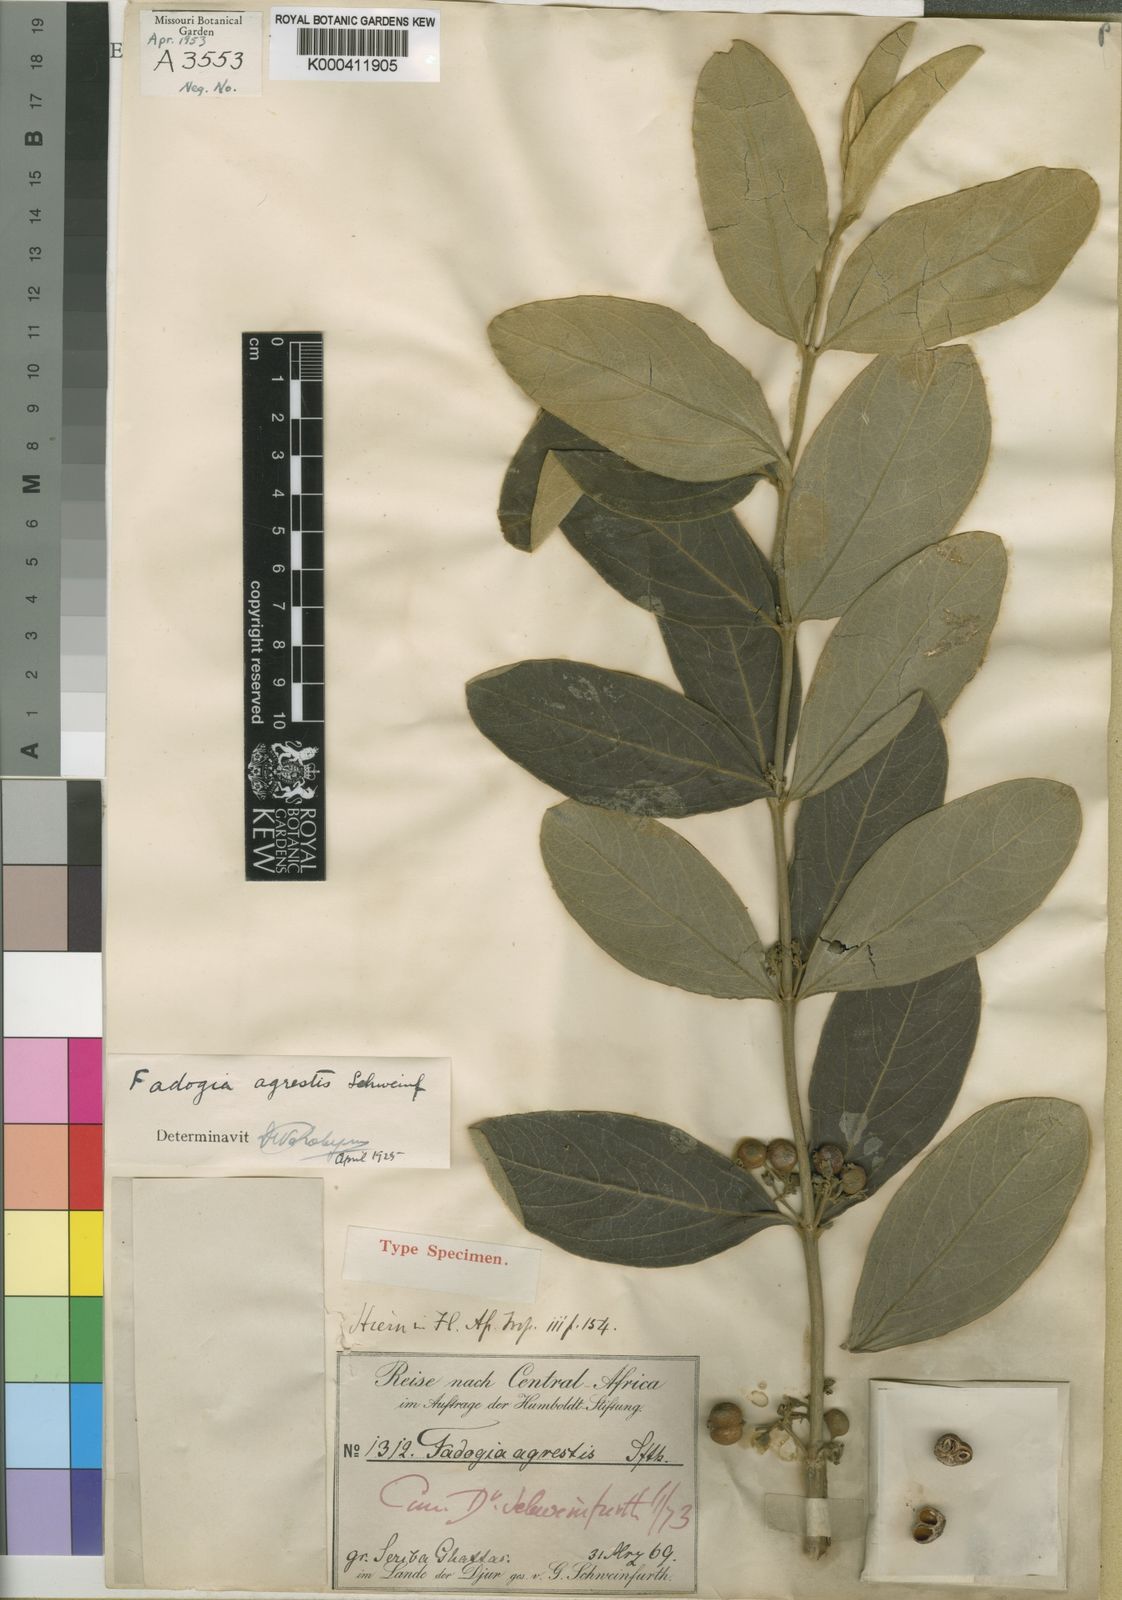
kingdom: Plantae
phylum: Tracheophyta
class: Magnoliopsida
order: Gentianales
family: Rubiaceae
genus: Vangueria
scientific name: Vangueria agrestis
